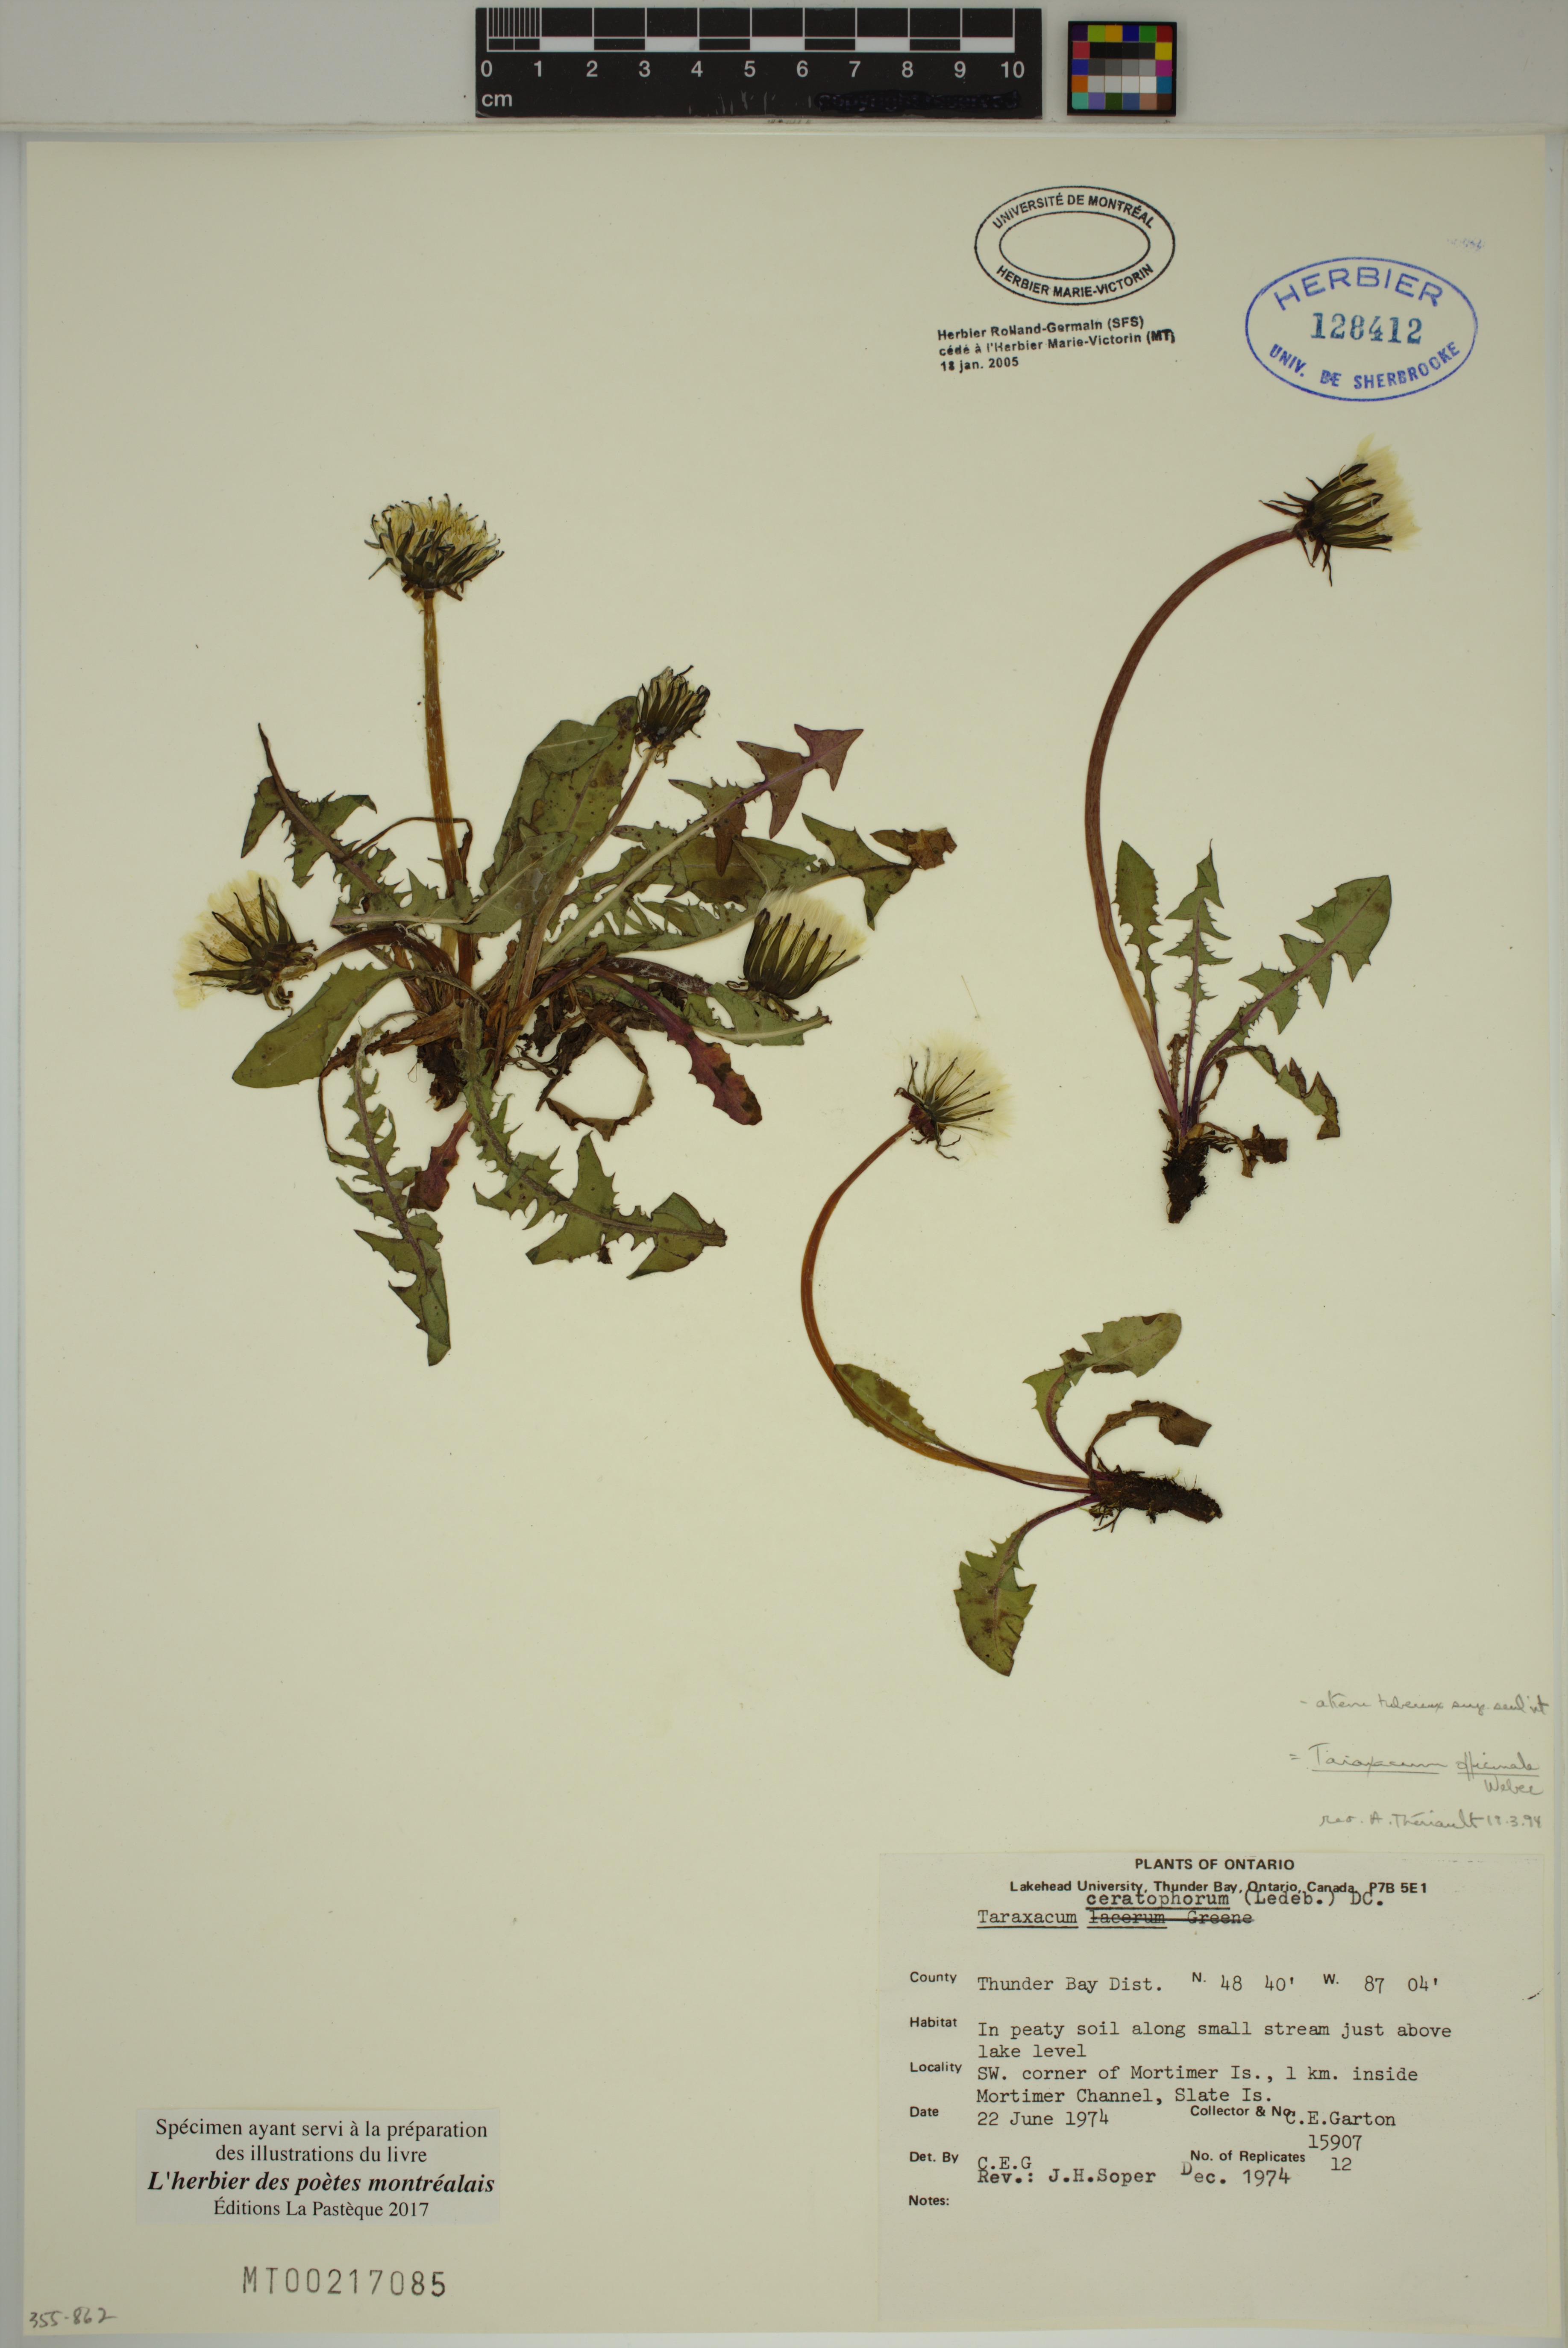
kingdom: Plantae
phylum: Tracheophyta
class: Magnoliopsida
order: Asterales
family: Asteraceae
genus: Taraxacum
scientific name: Taraxacum officinale
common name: Common dandelion
